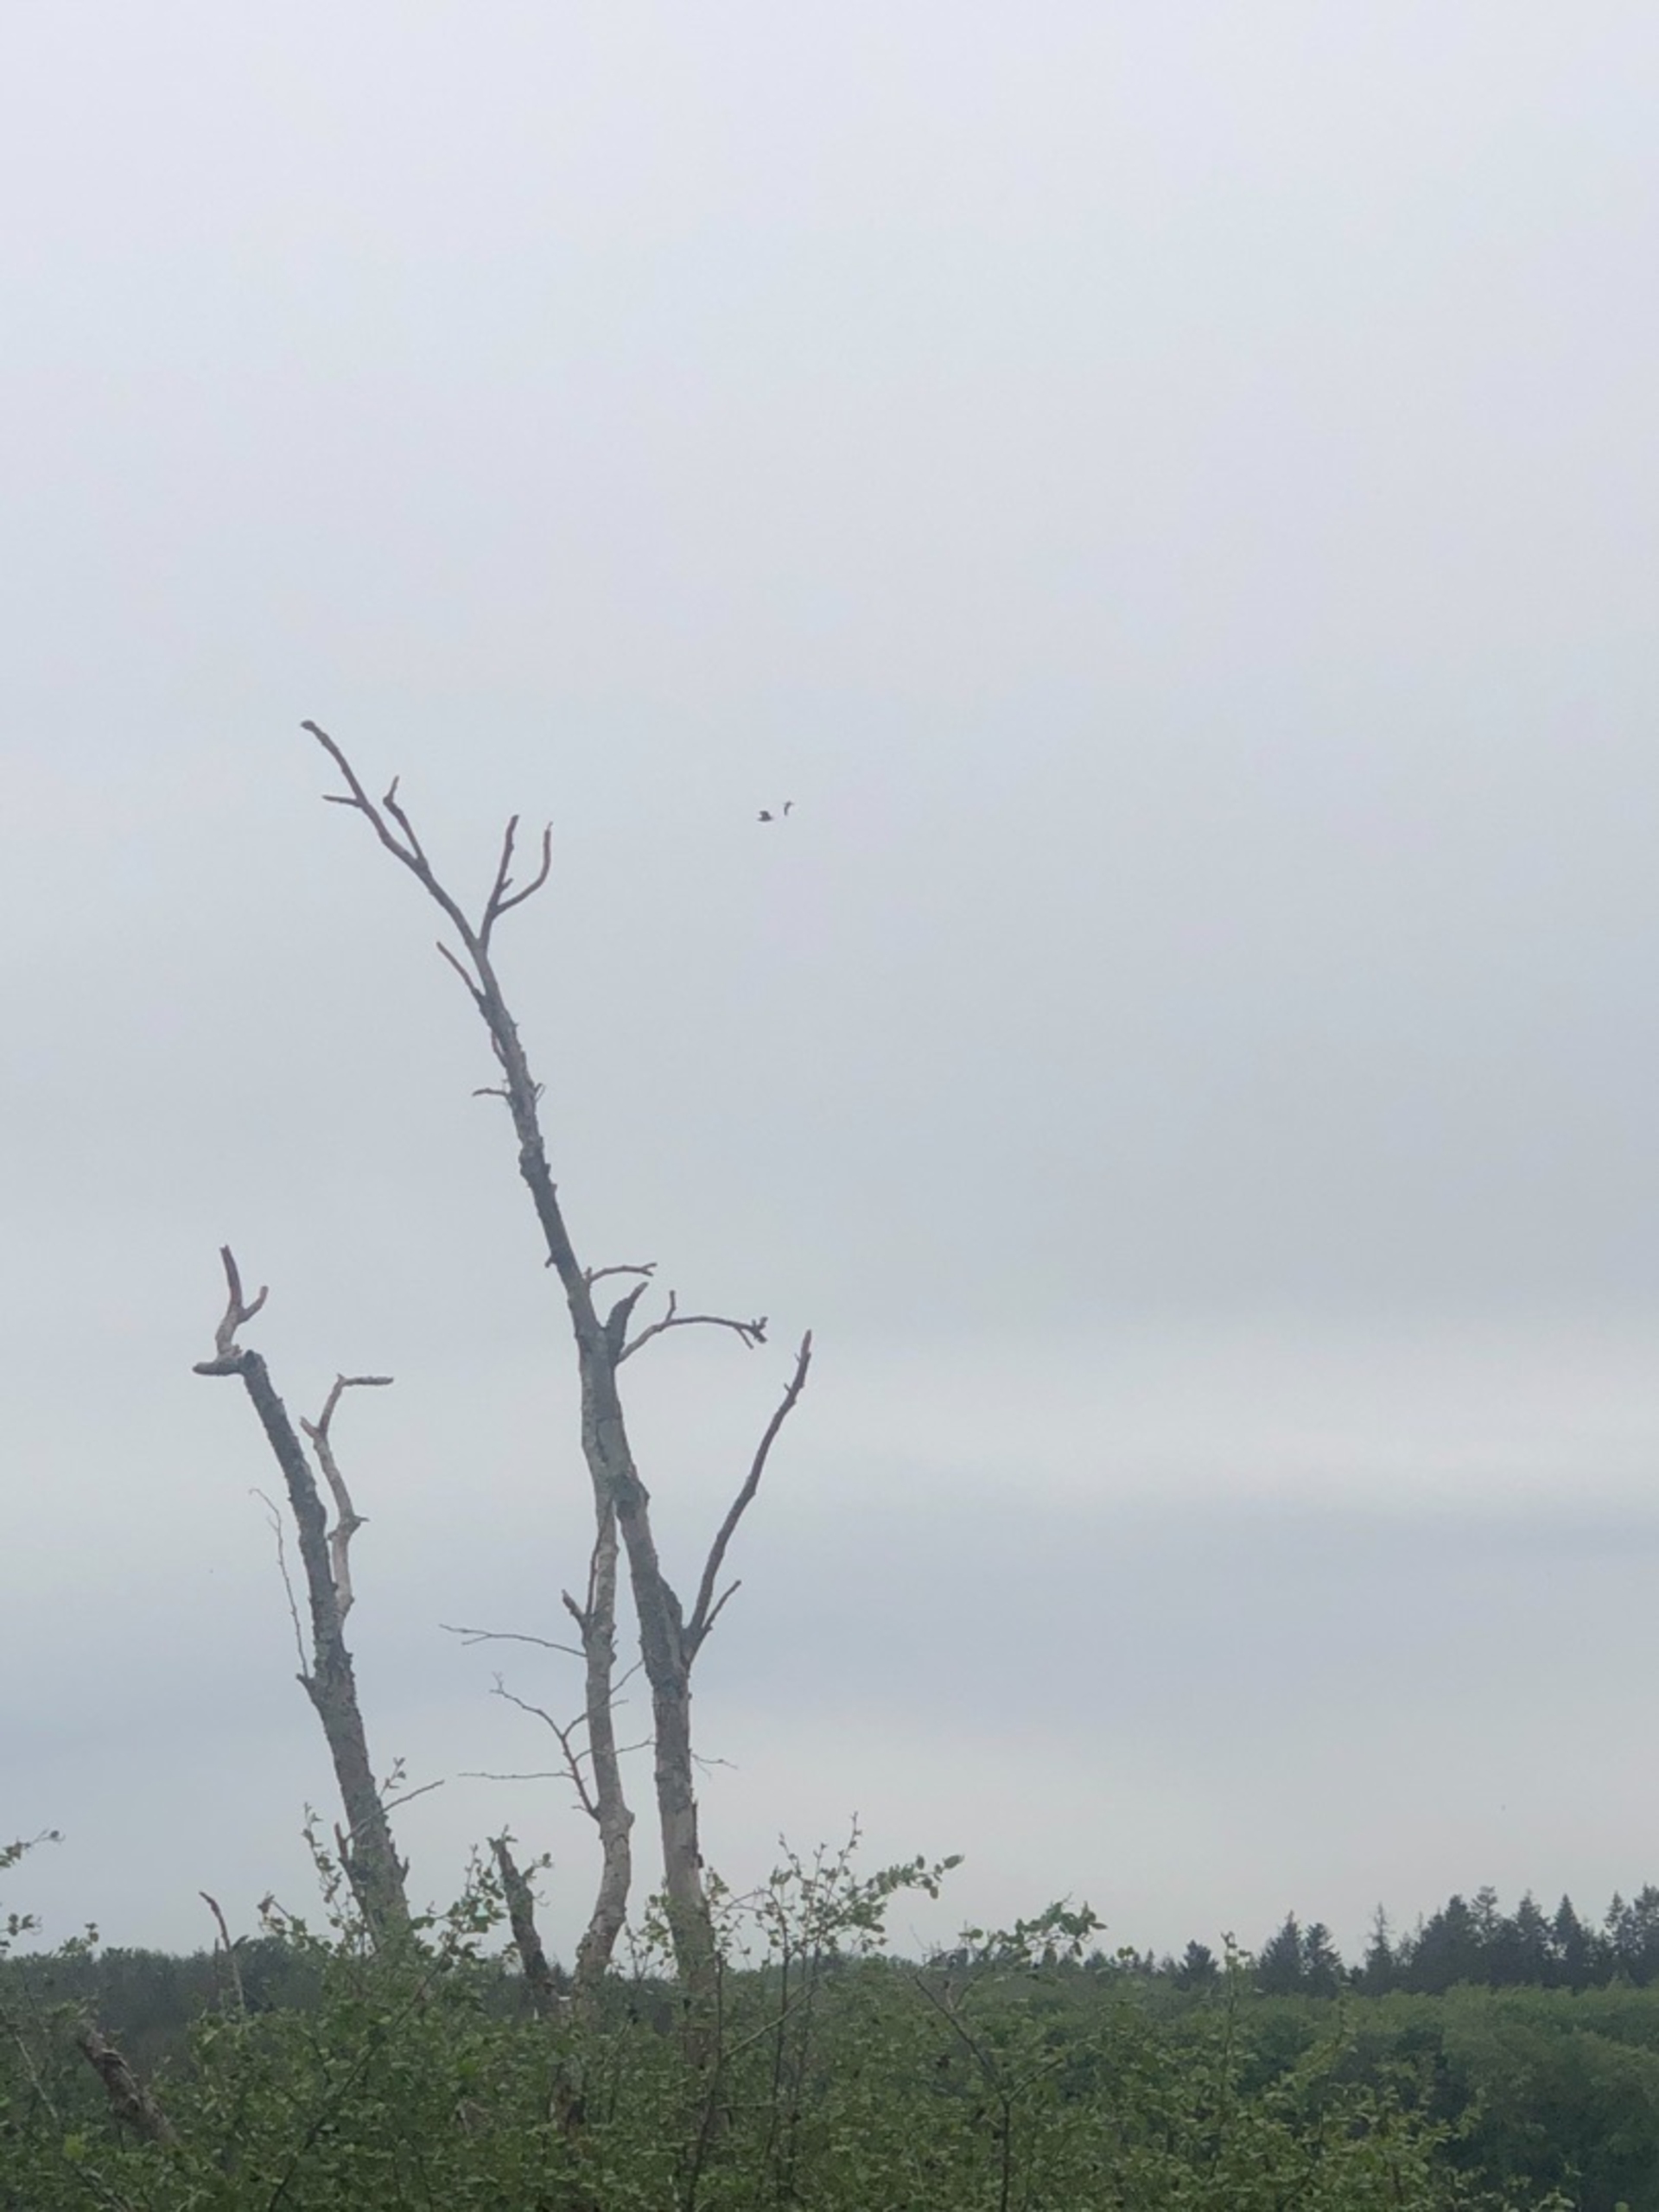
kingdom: Animalia
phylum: Chordata
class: Aves
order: Accipitriformes
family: Accipitridae
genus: Haliaeetus
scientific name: Haliaeetus albicilla
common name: Havørn
